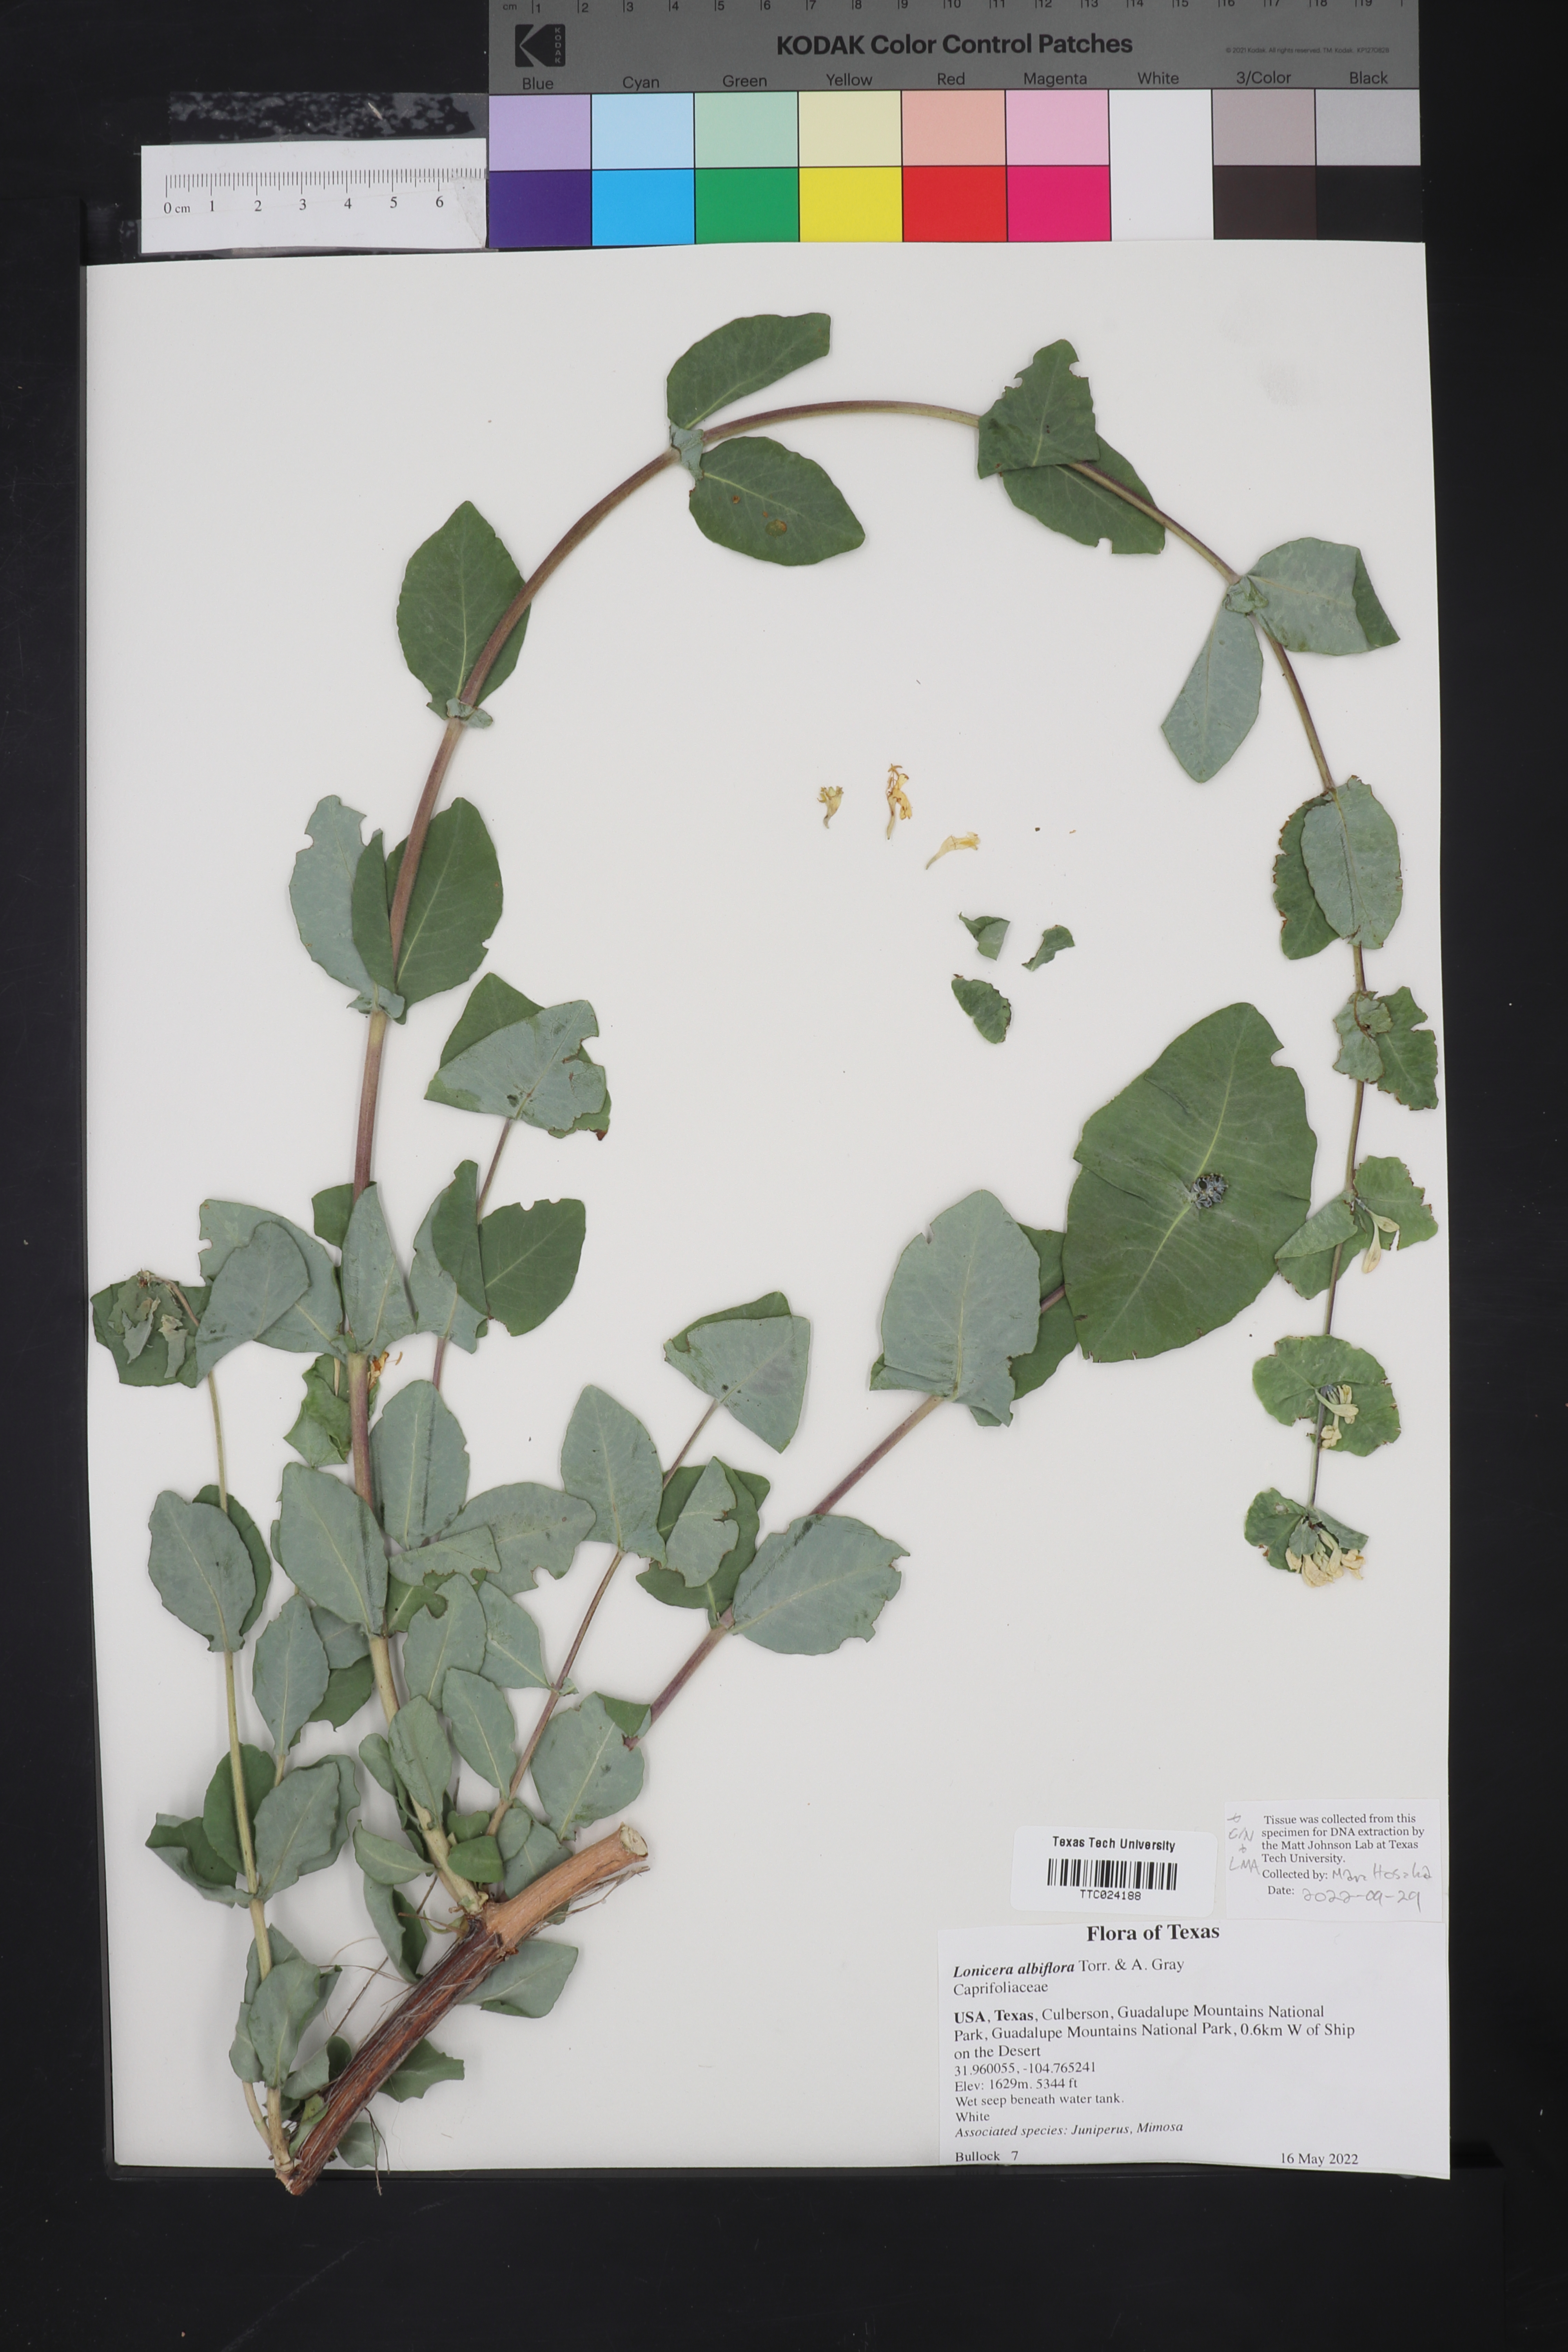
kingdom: Plantae
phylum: Tracheophyta
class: Magnoliopsida
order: Dipsacales
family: Caprifoliaceae
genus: Lonicera
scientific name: Lonicera albiflora
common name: White honeysuckle
